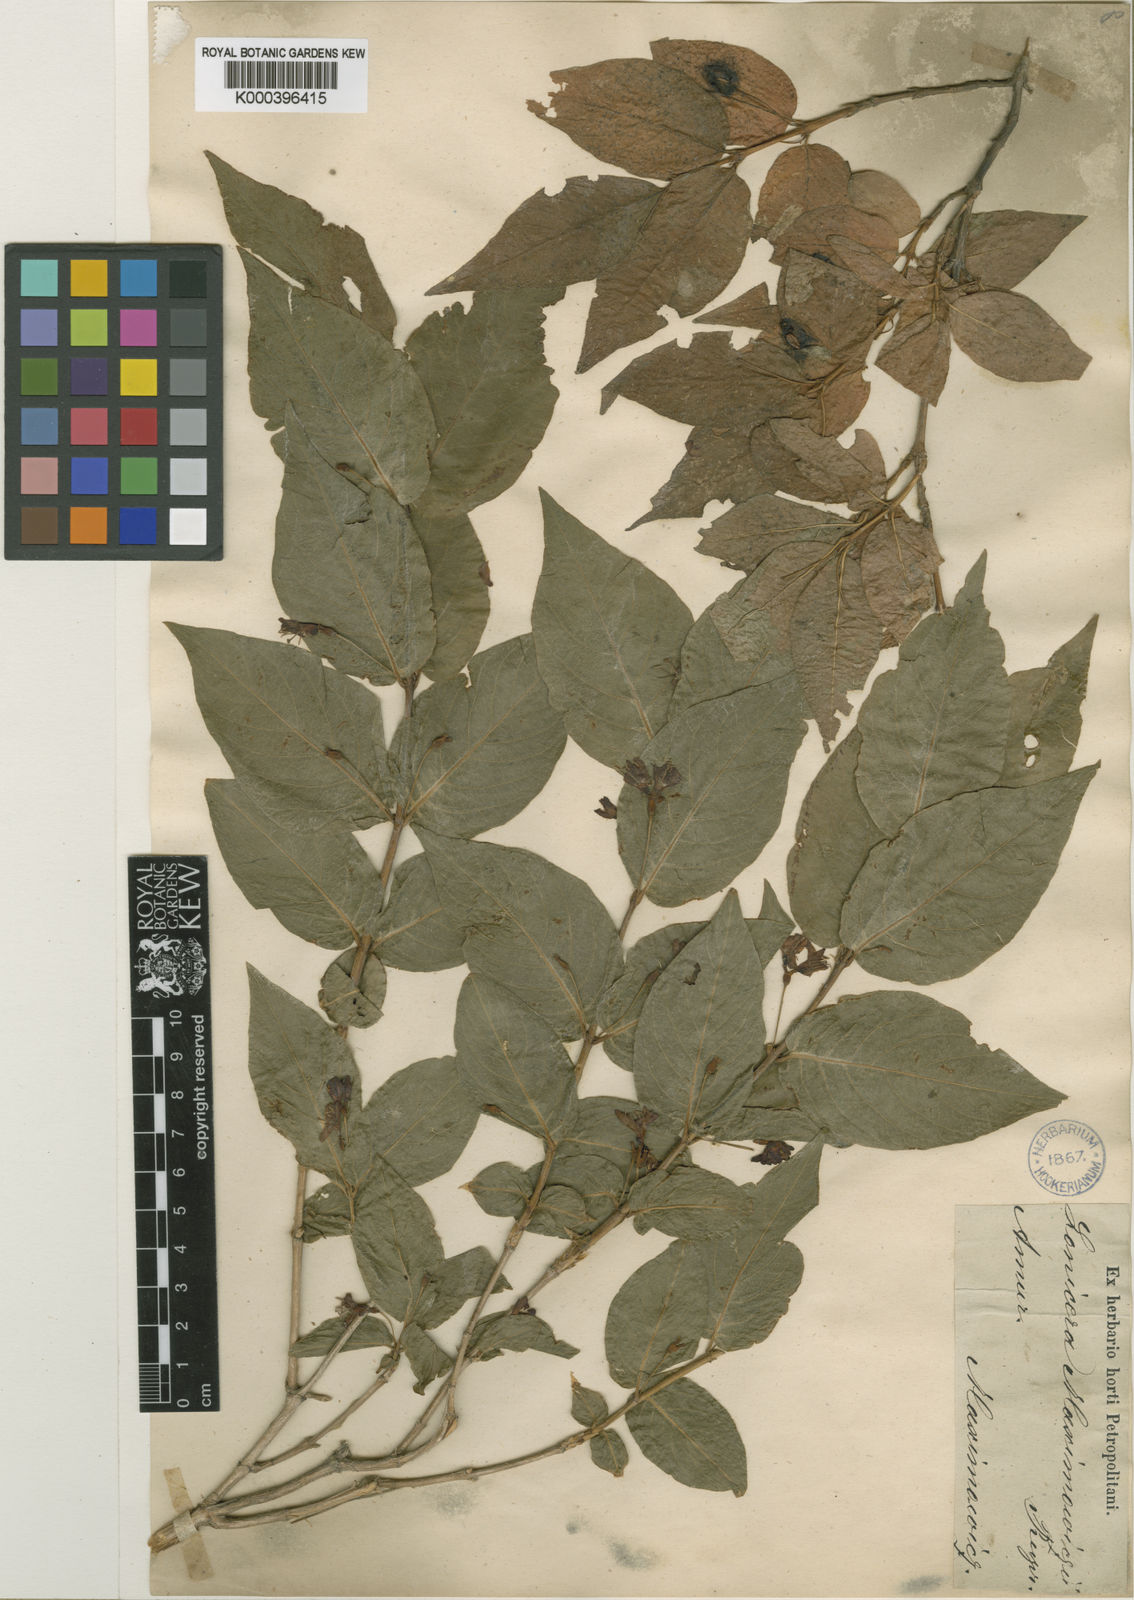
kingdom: Plantae
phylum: Tracheophyta
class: Magnoliopsida
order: Dipsacales
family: Caprifoliaceae
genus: Lonicera
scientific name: Lonicera maximowiczii
